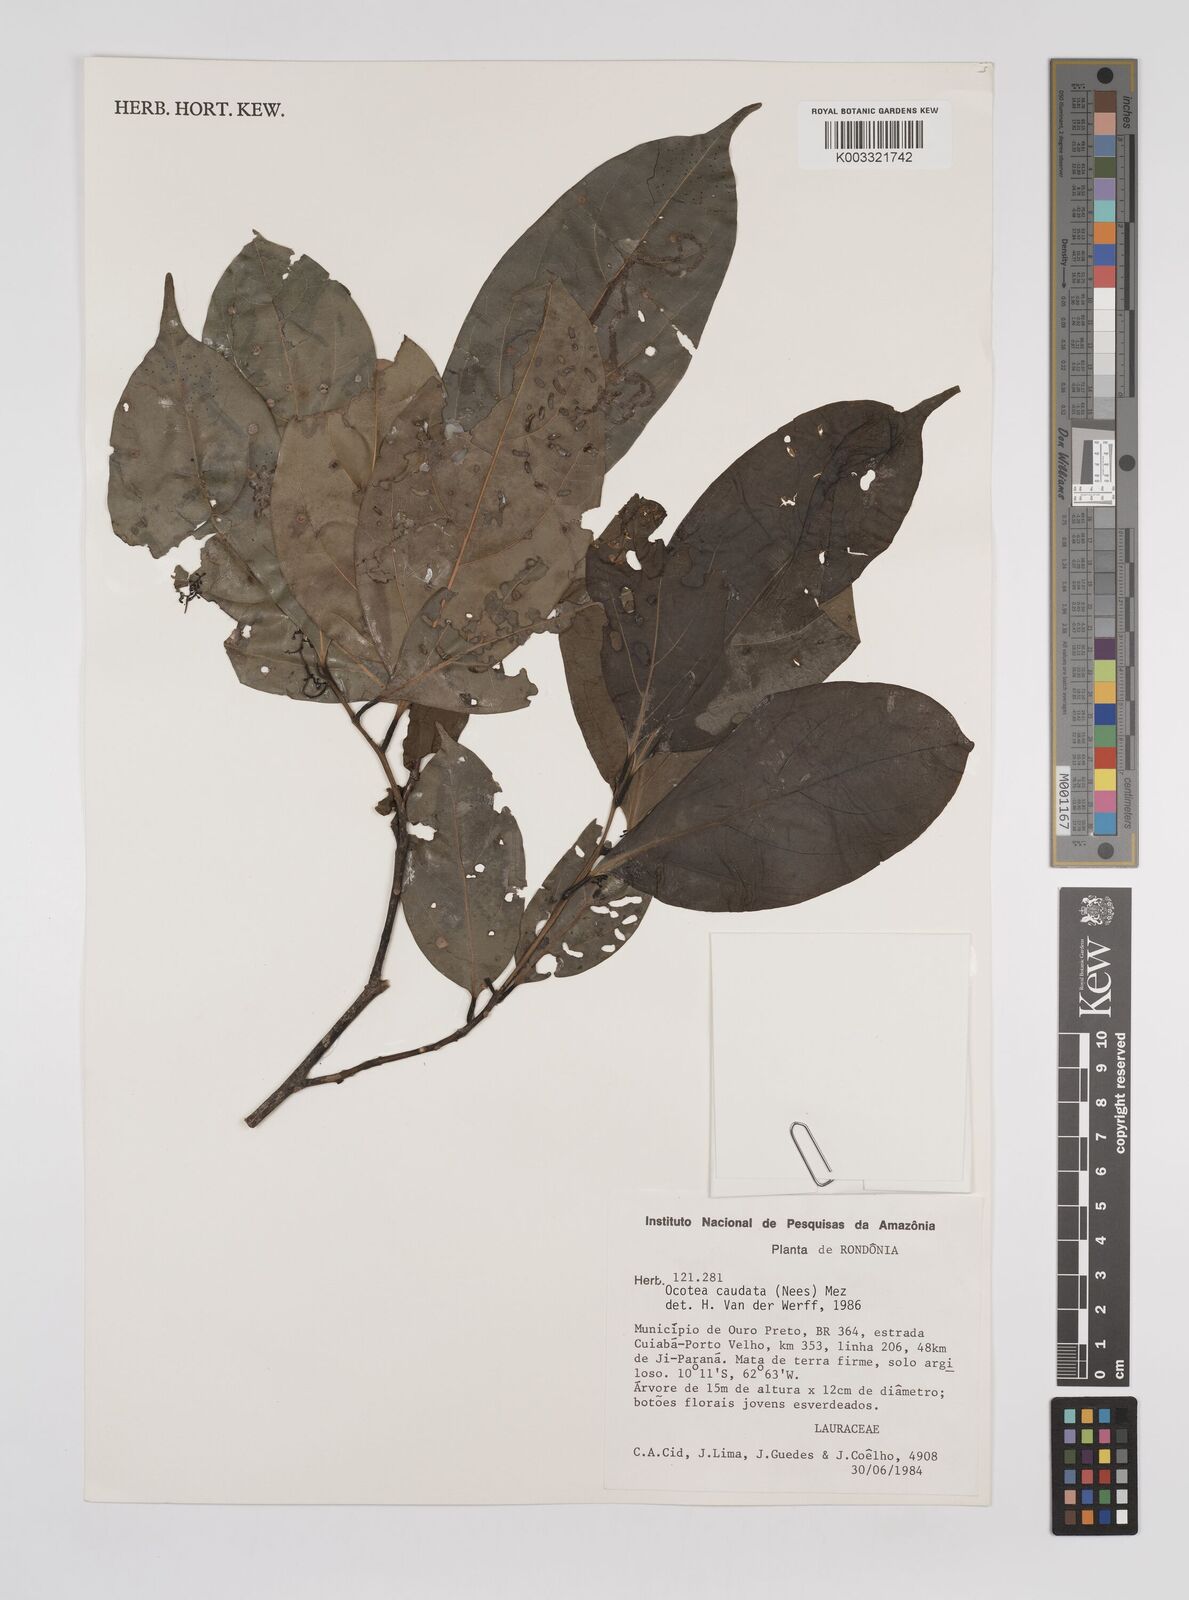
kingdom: Plantae
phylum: Tracheophyta
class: Magnoliopsida
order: Laurales
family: Lauraceae
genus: Ocotea
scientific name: Ocotea leptobotra
